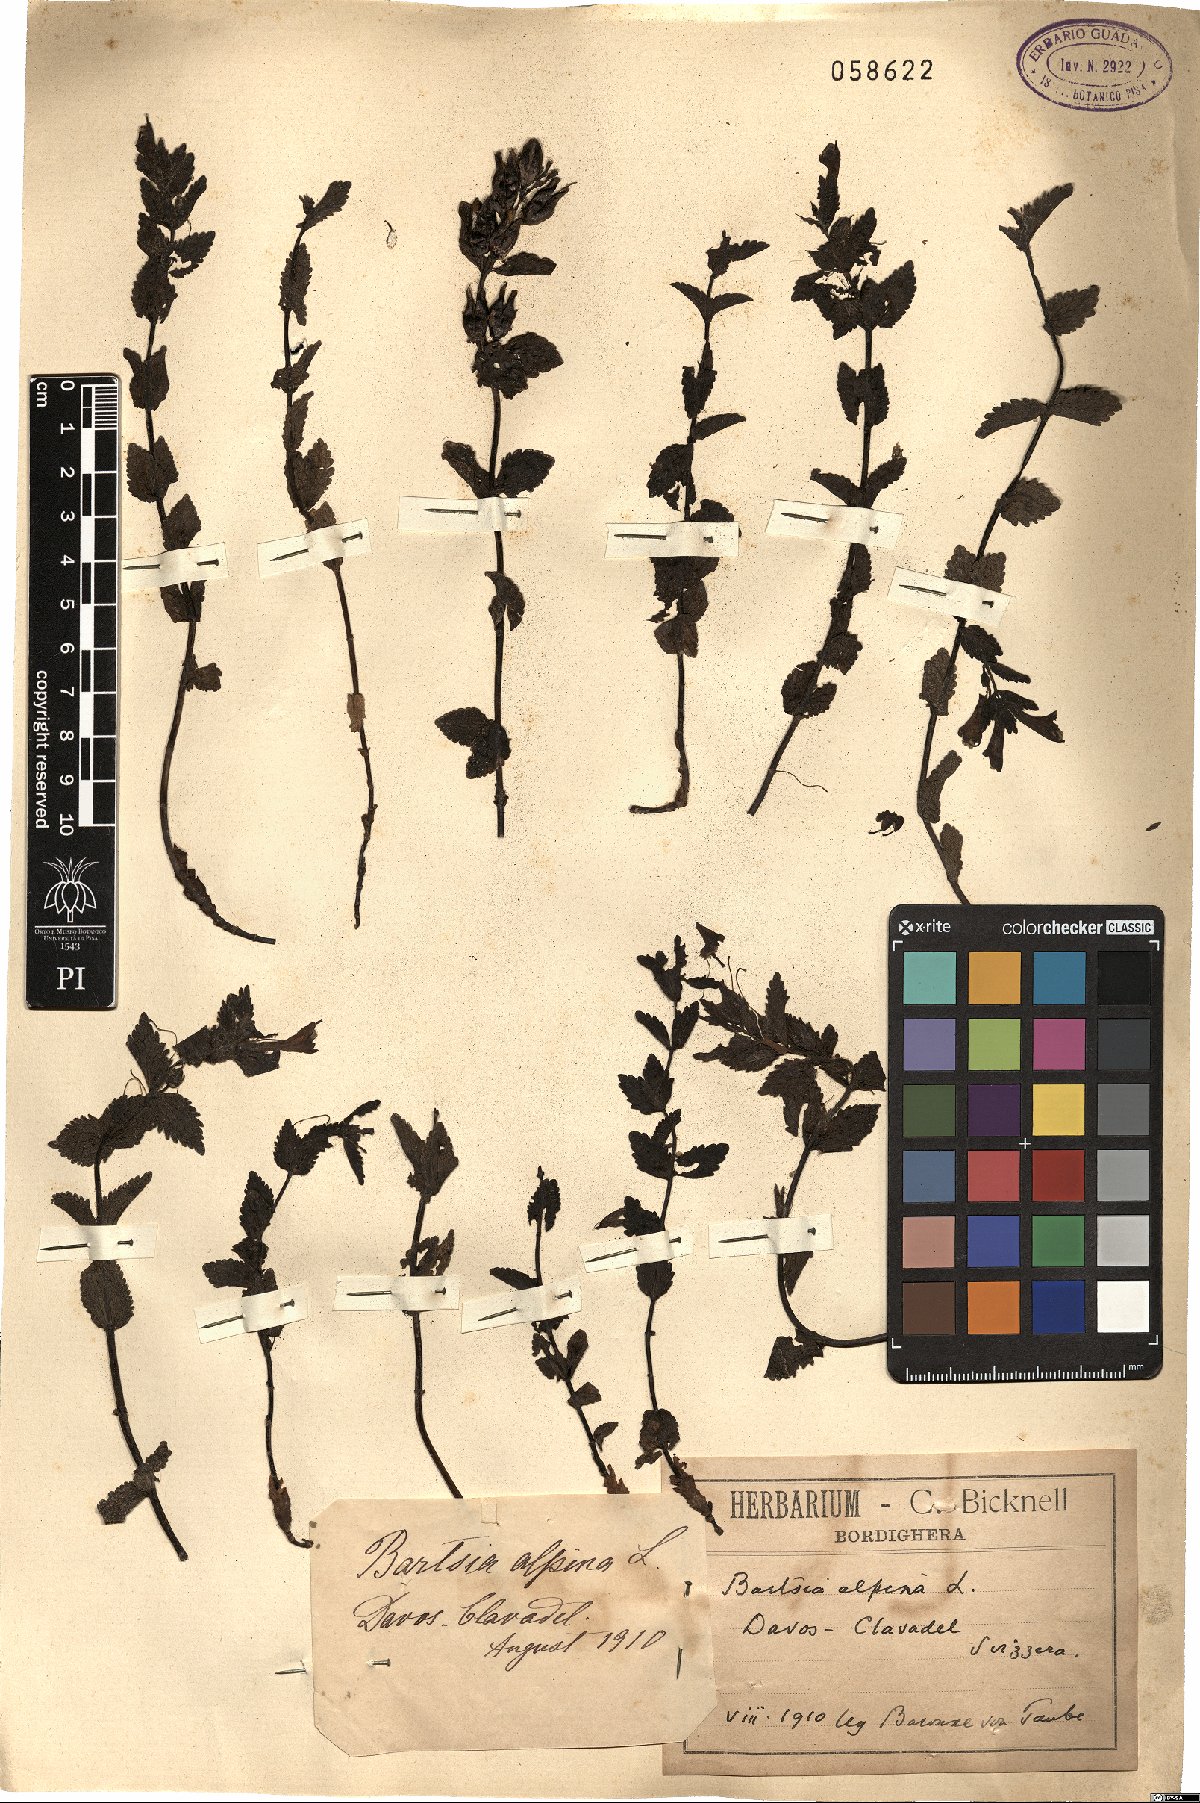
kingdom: Plantae
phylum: Tracheophyta
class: Magnoliopsida
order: Lamiales
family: Orobanchaceae
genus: Bartsia
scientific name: Bartsia alpina
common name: Alpine bartsia
